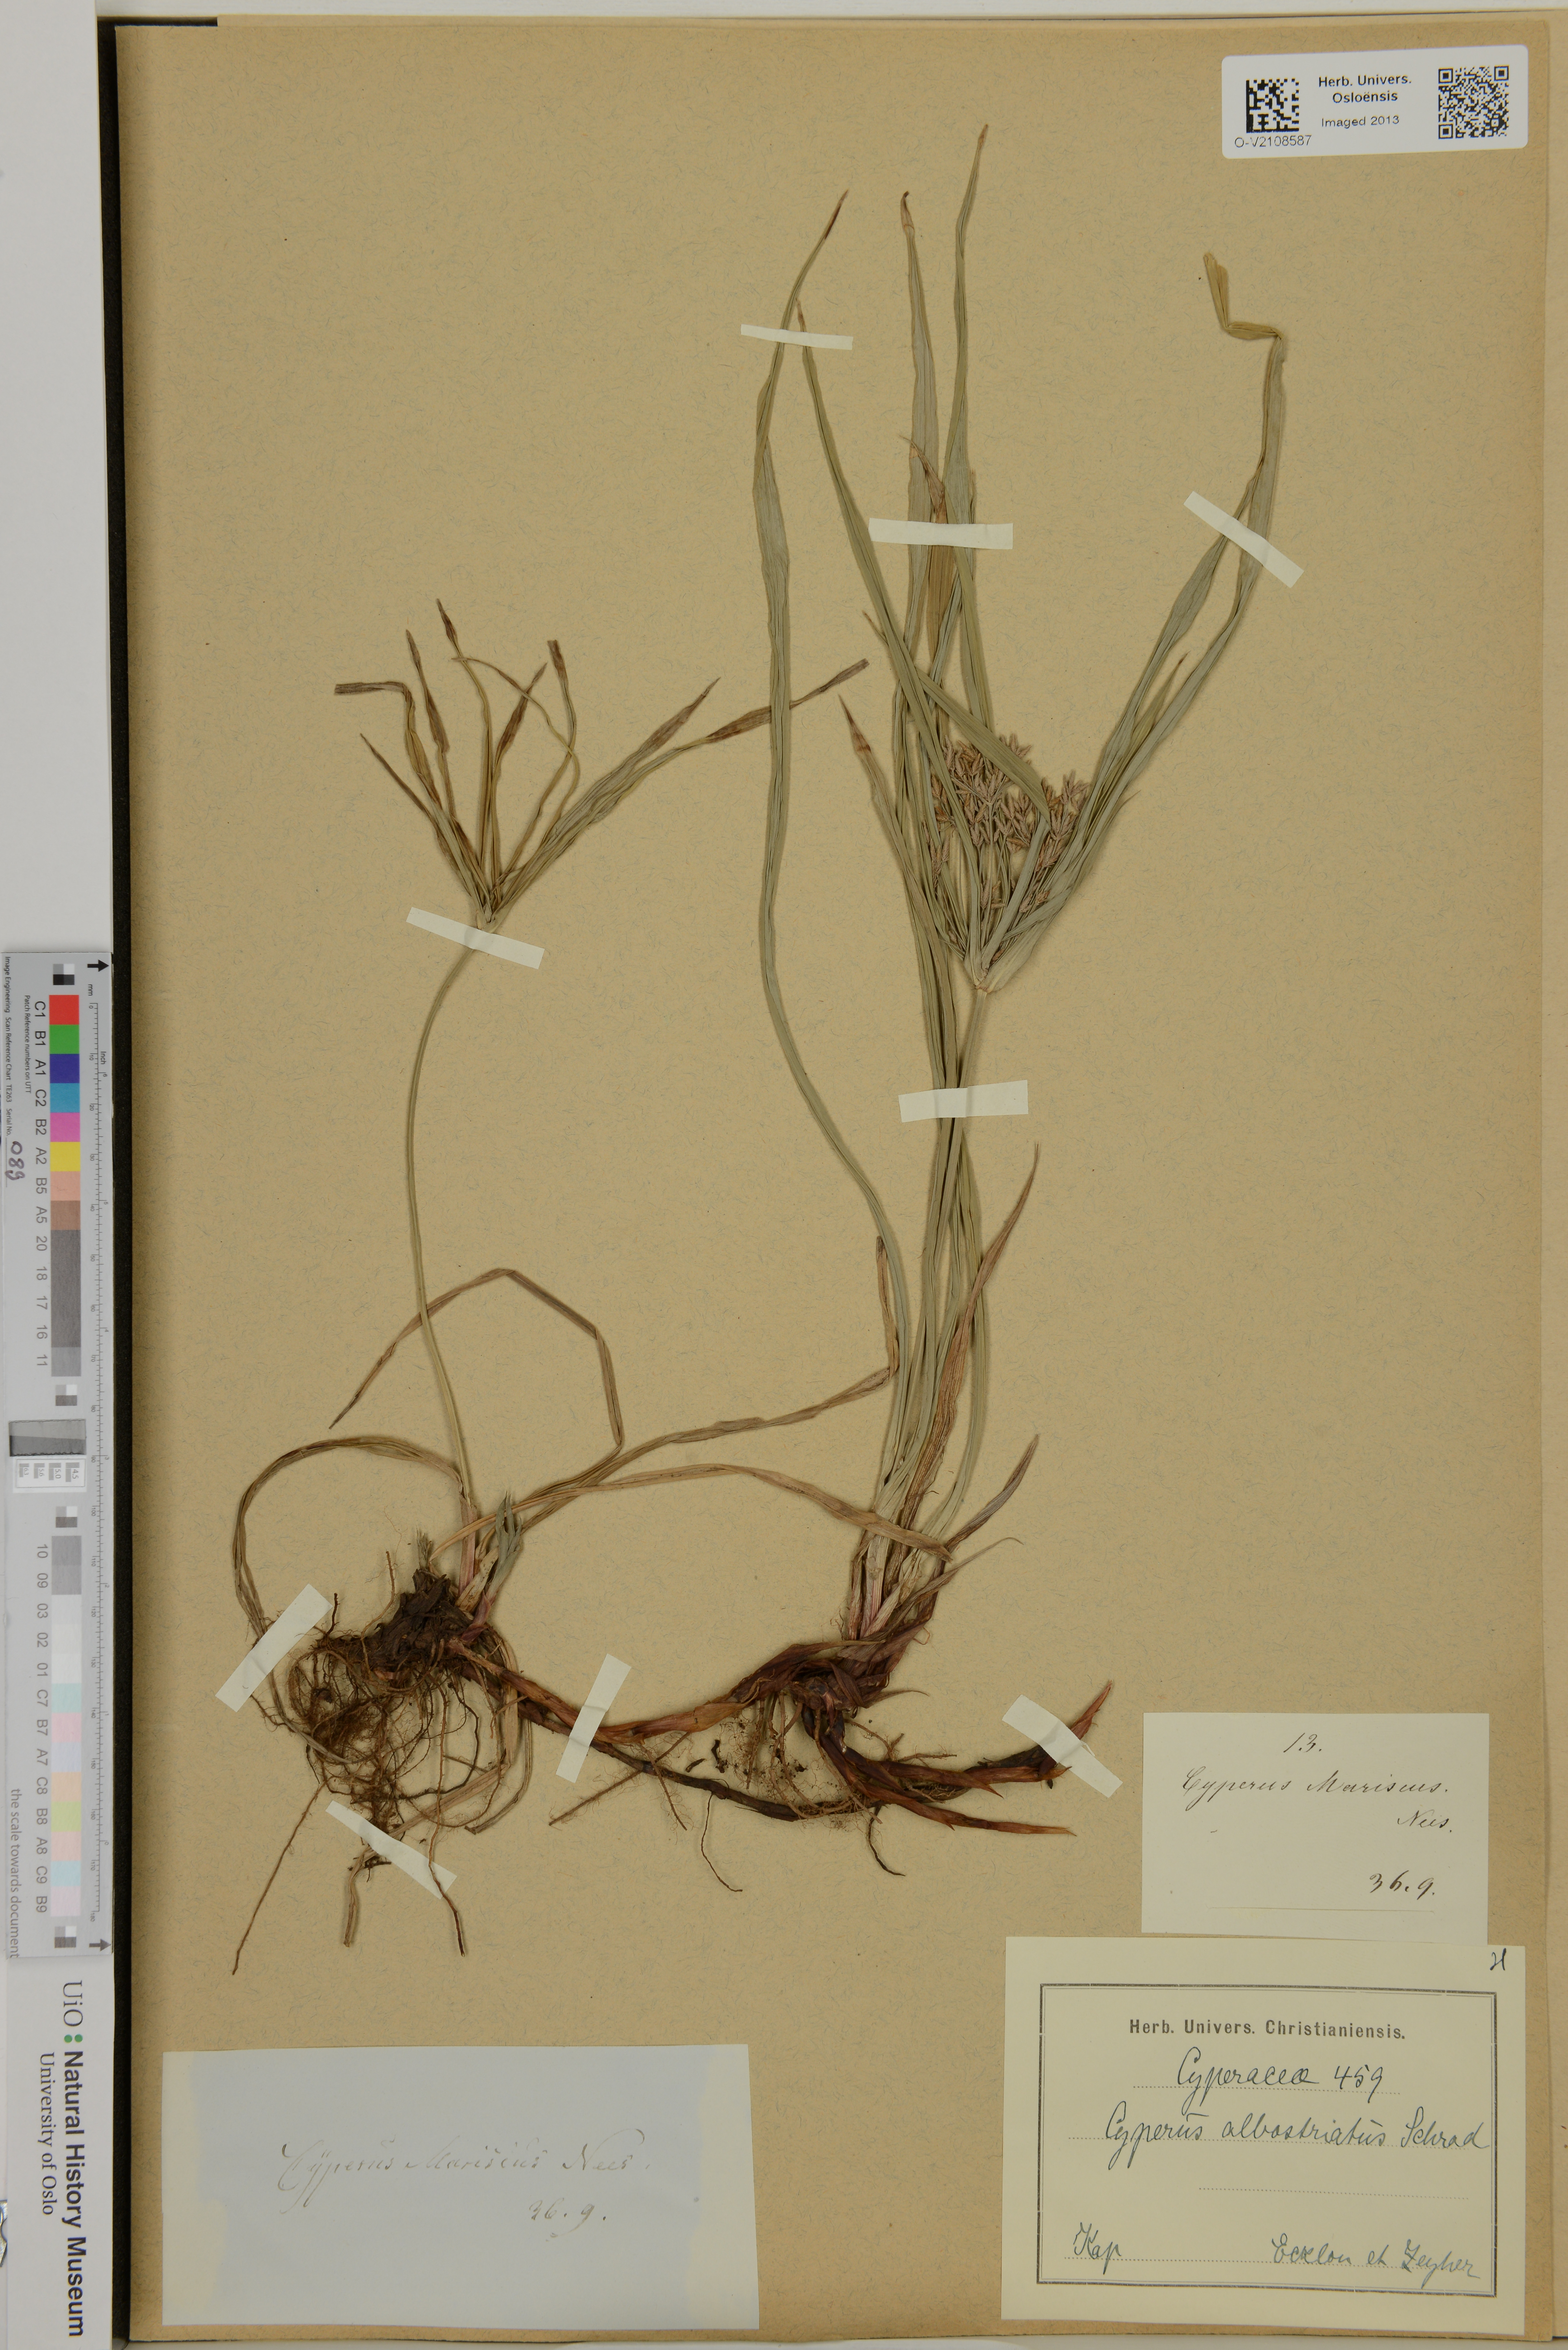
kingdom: Plantae
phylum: Tracheophyta
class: Liliopsida
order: Poales
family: Cyperaceae
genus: Cyperus
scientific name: Cyperus albostriatus
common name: Dwarf umbrella-grass
